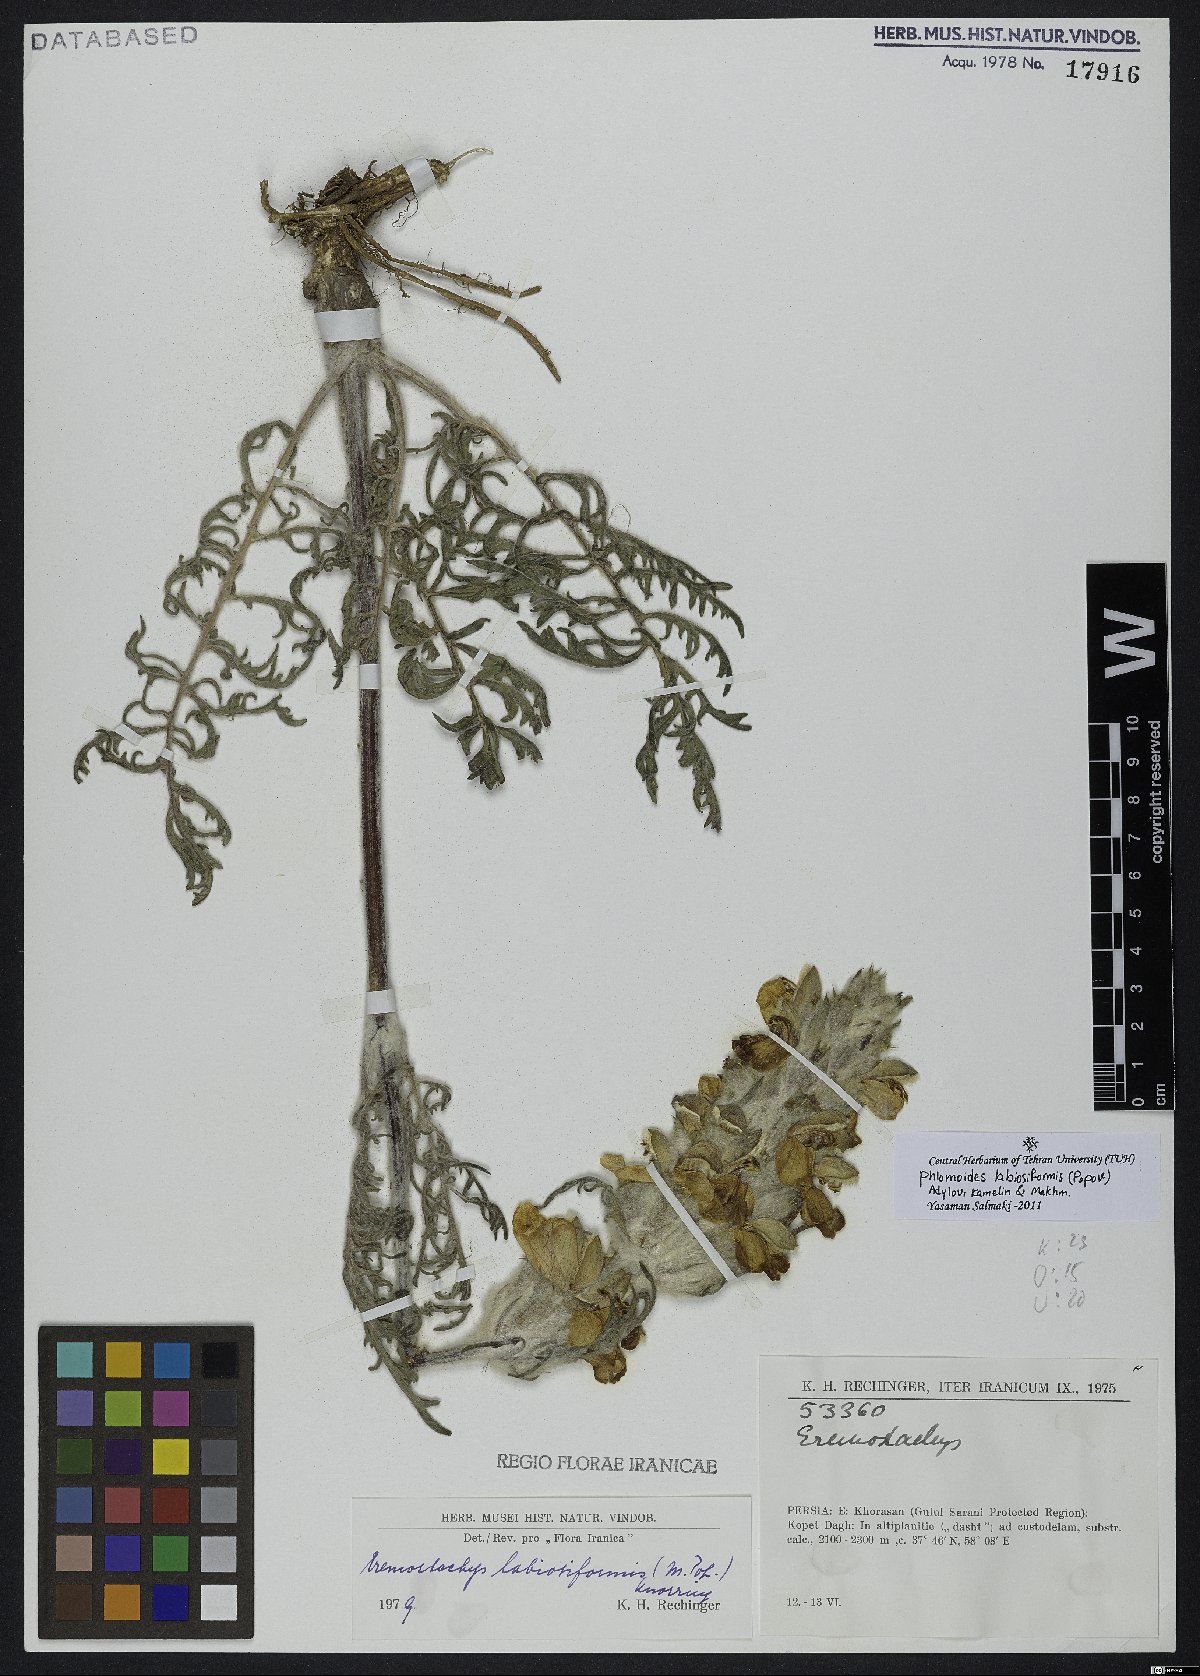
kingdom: Plantae
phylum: Tracheophyta
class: Magnoliopsida
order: Lamiales
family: Lamiaceae
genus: Phlomoides
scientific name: Phlomoides labiosiformis
